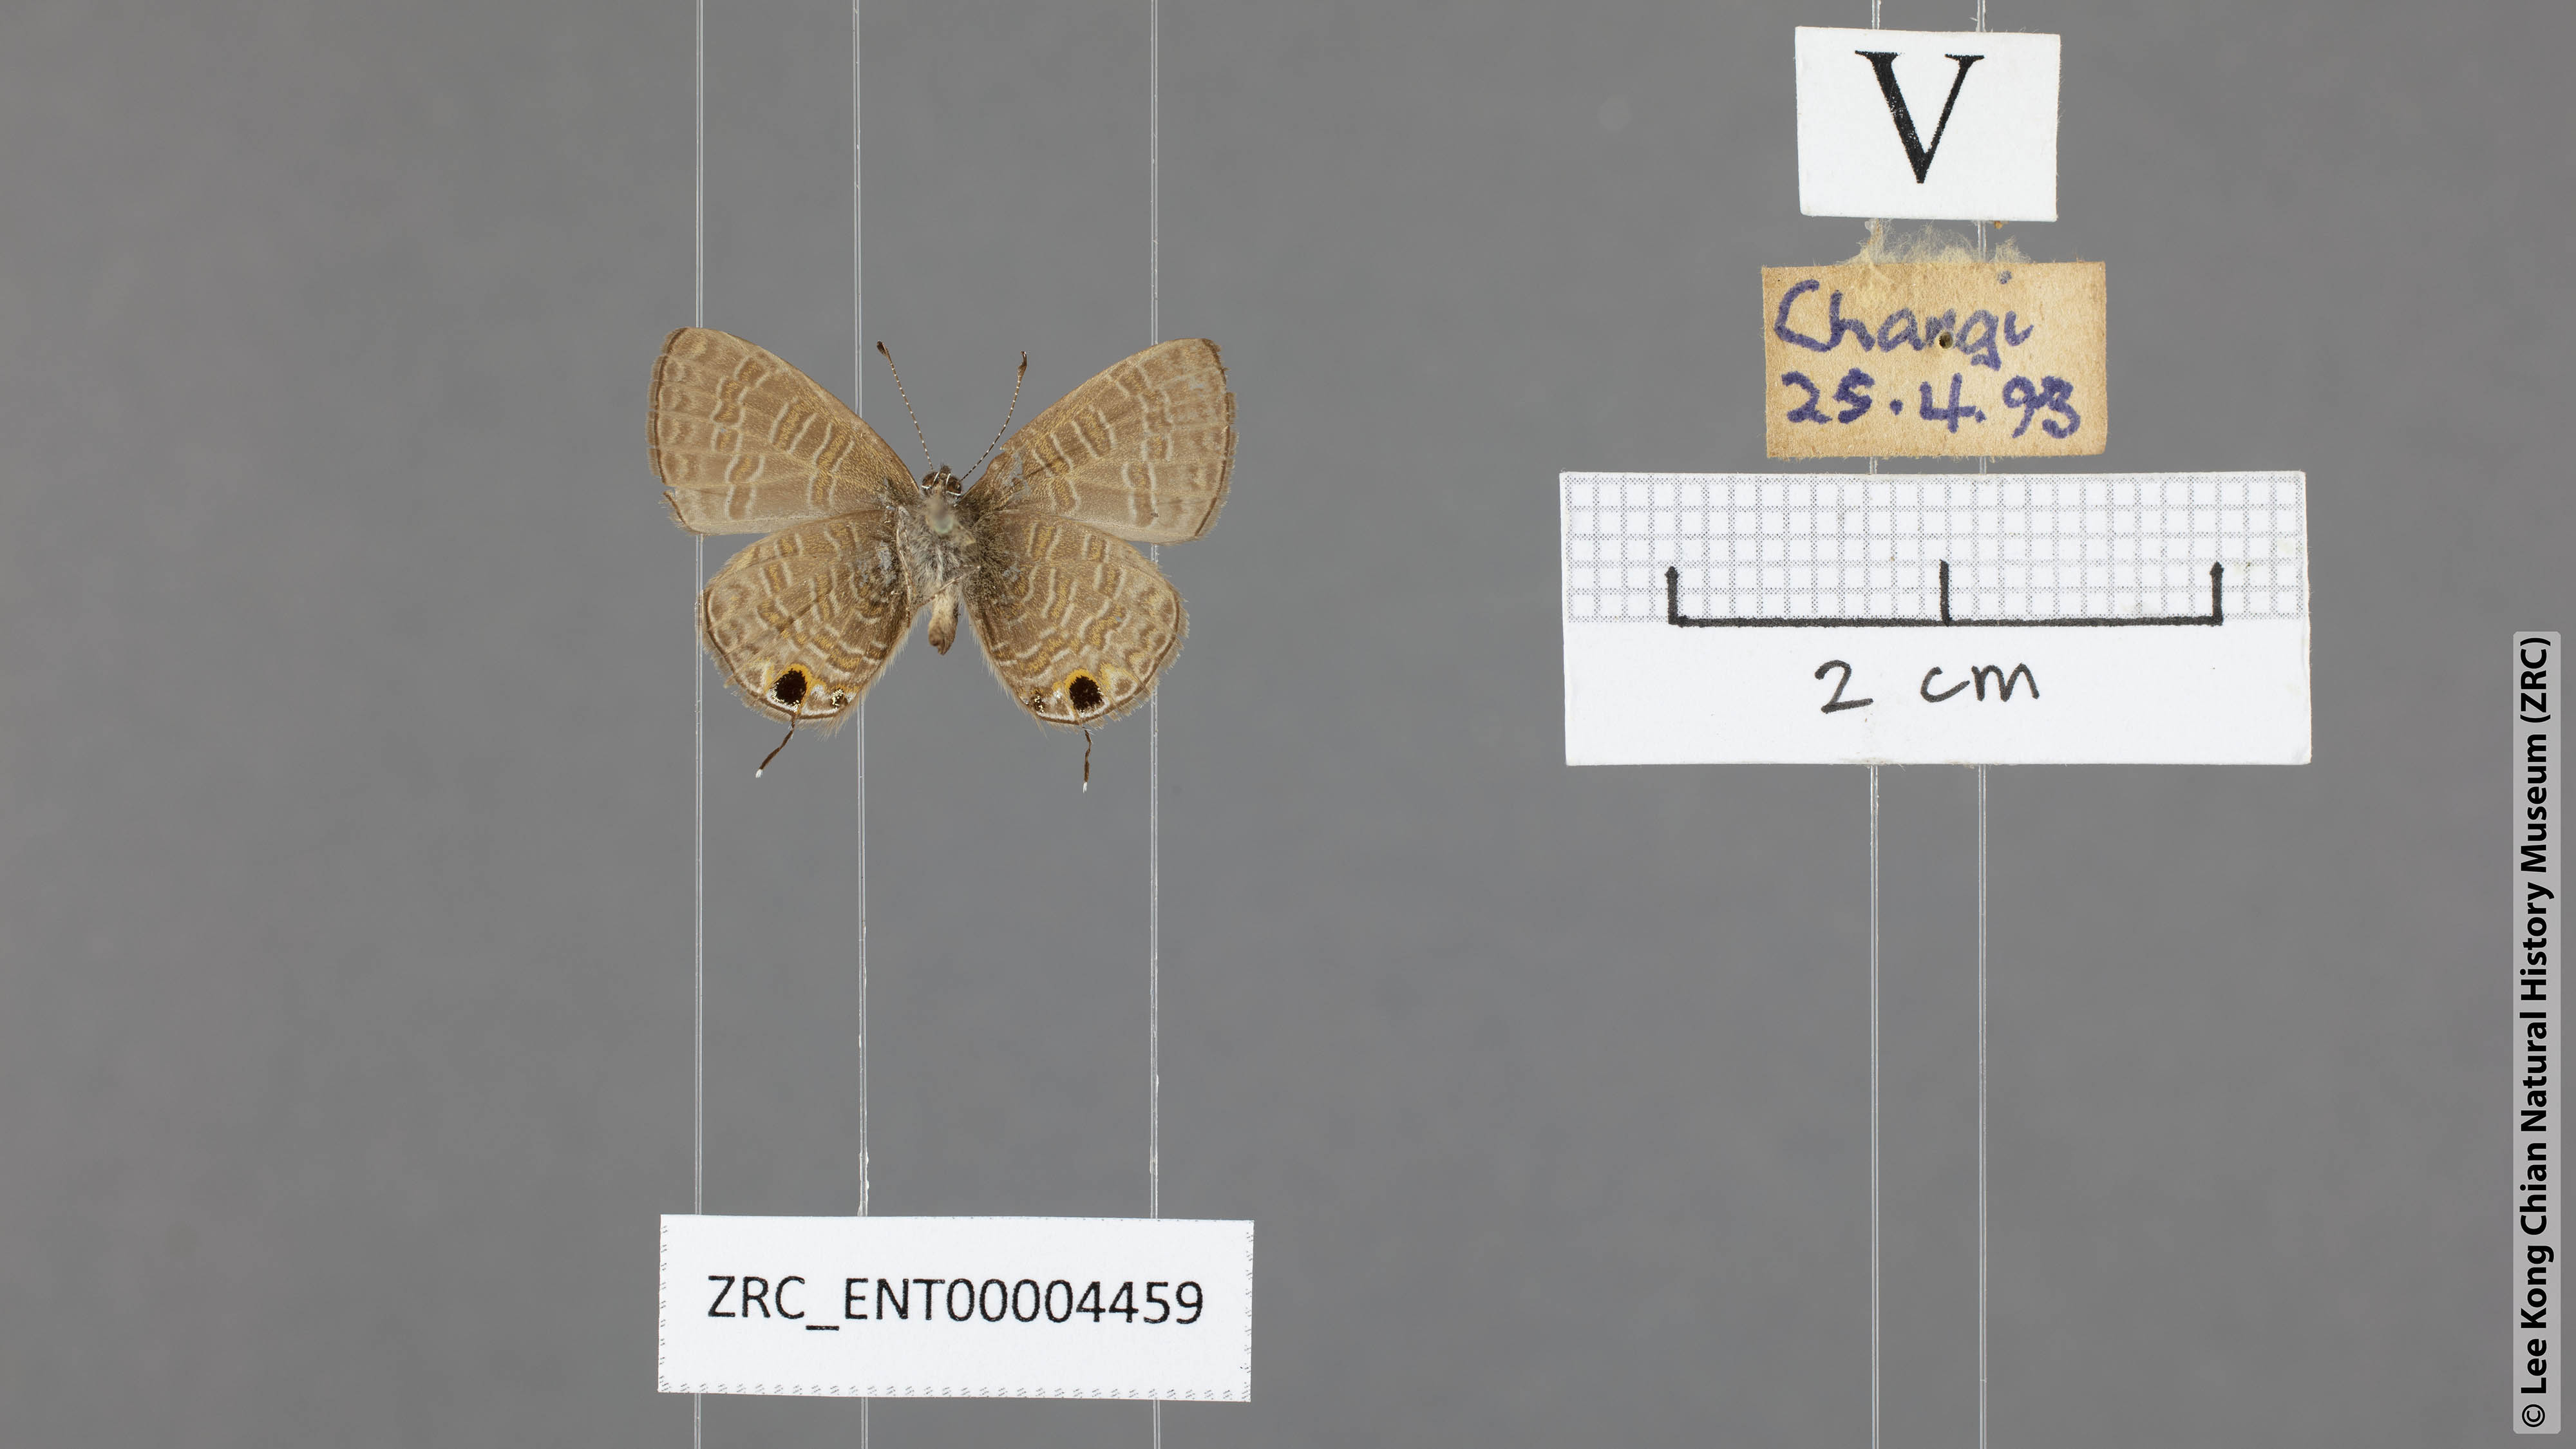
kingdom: Animalia
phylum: Arthropoda
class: Insecta
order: Lepidoptera
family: Lycaenidae
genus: Prosotas
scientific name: Prosotas nora
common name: Common line blue
